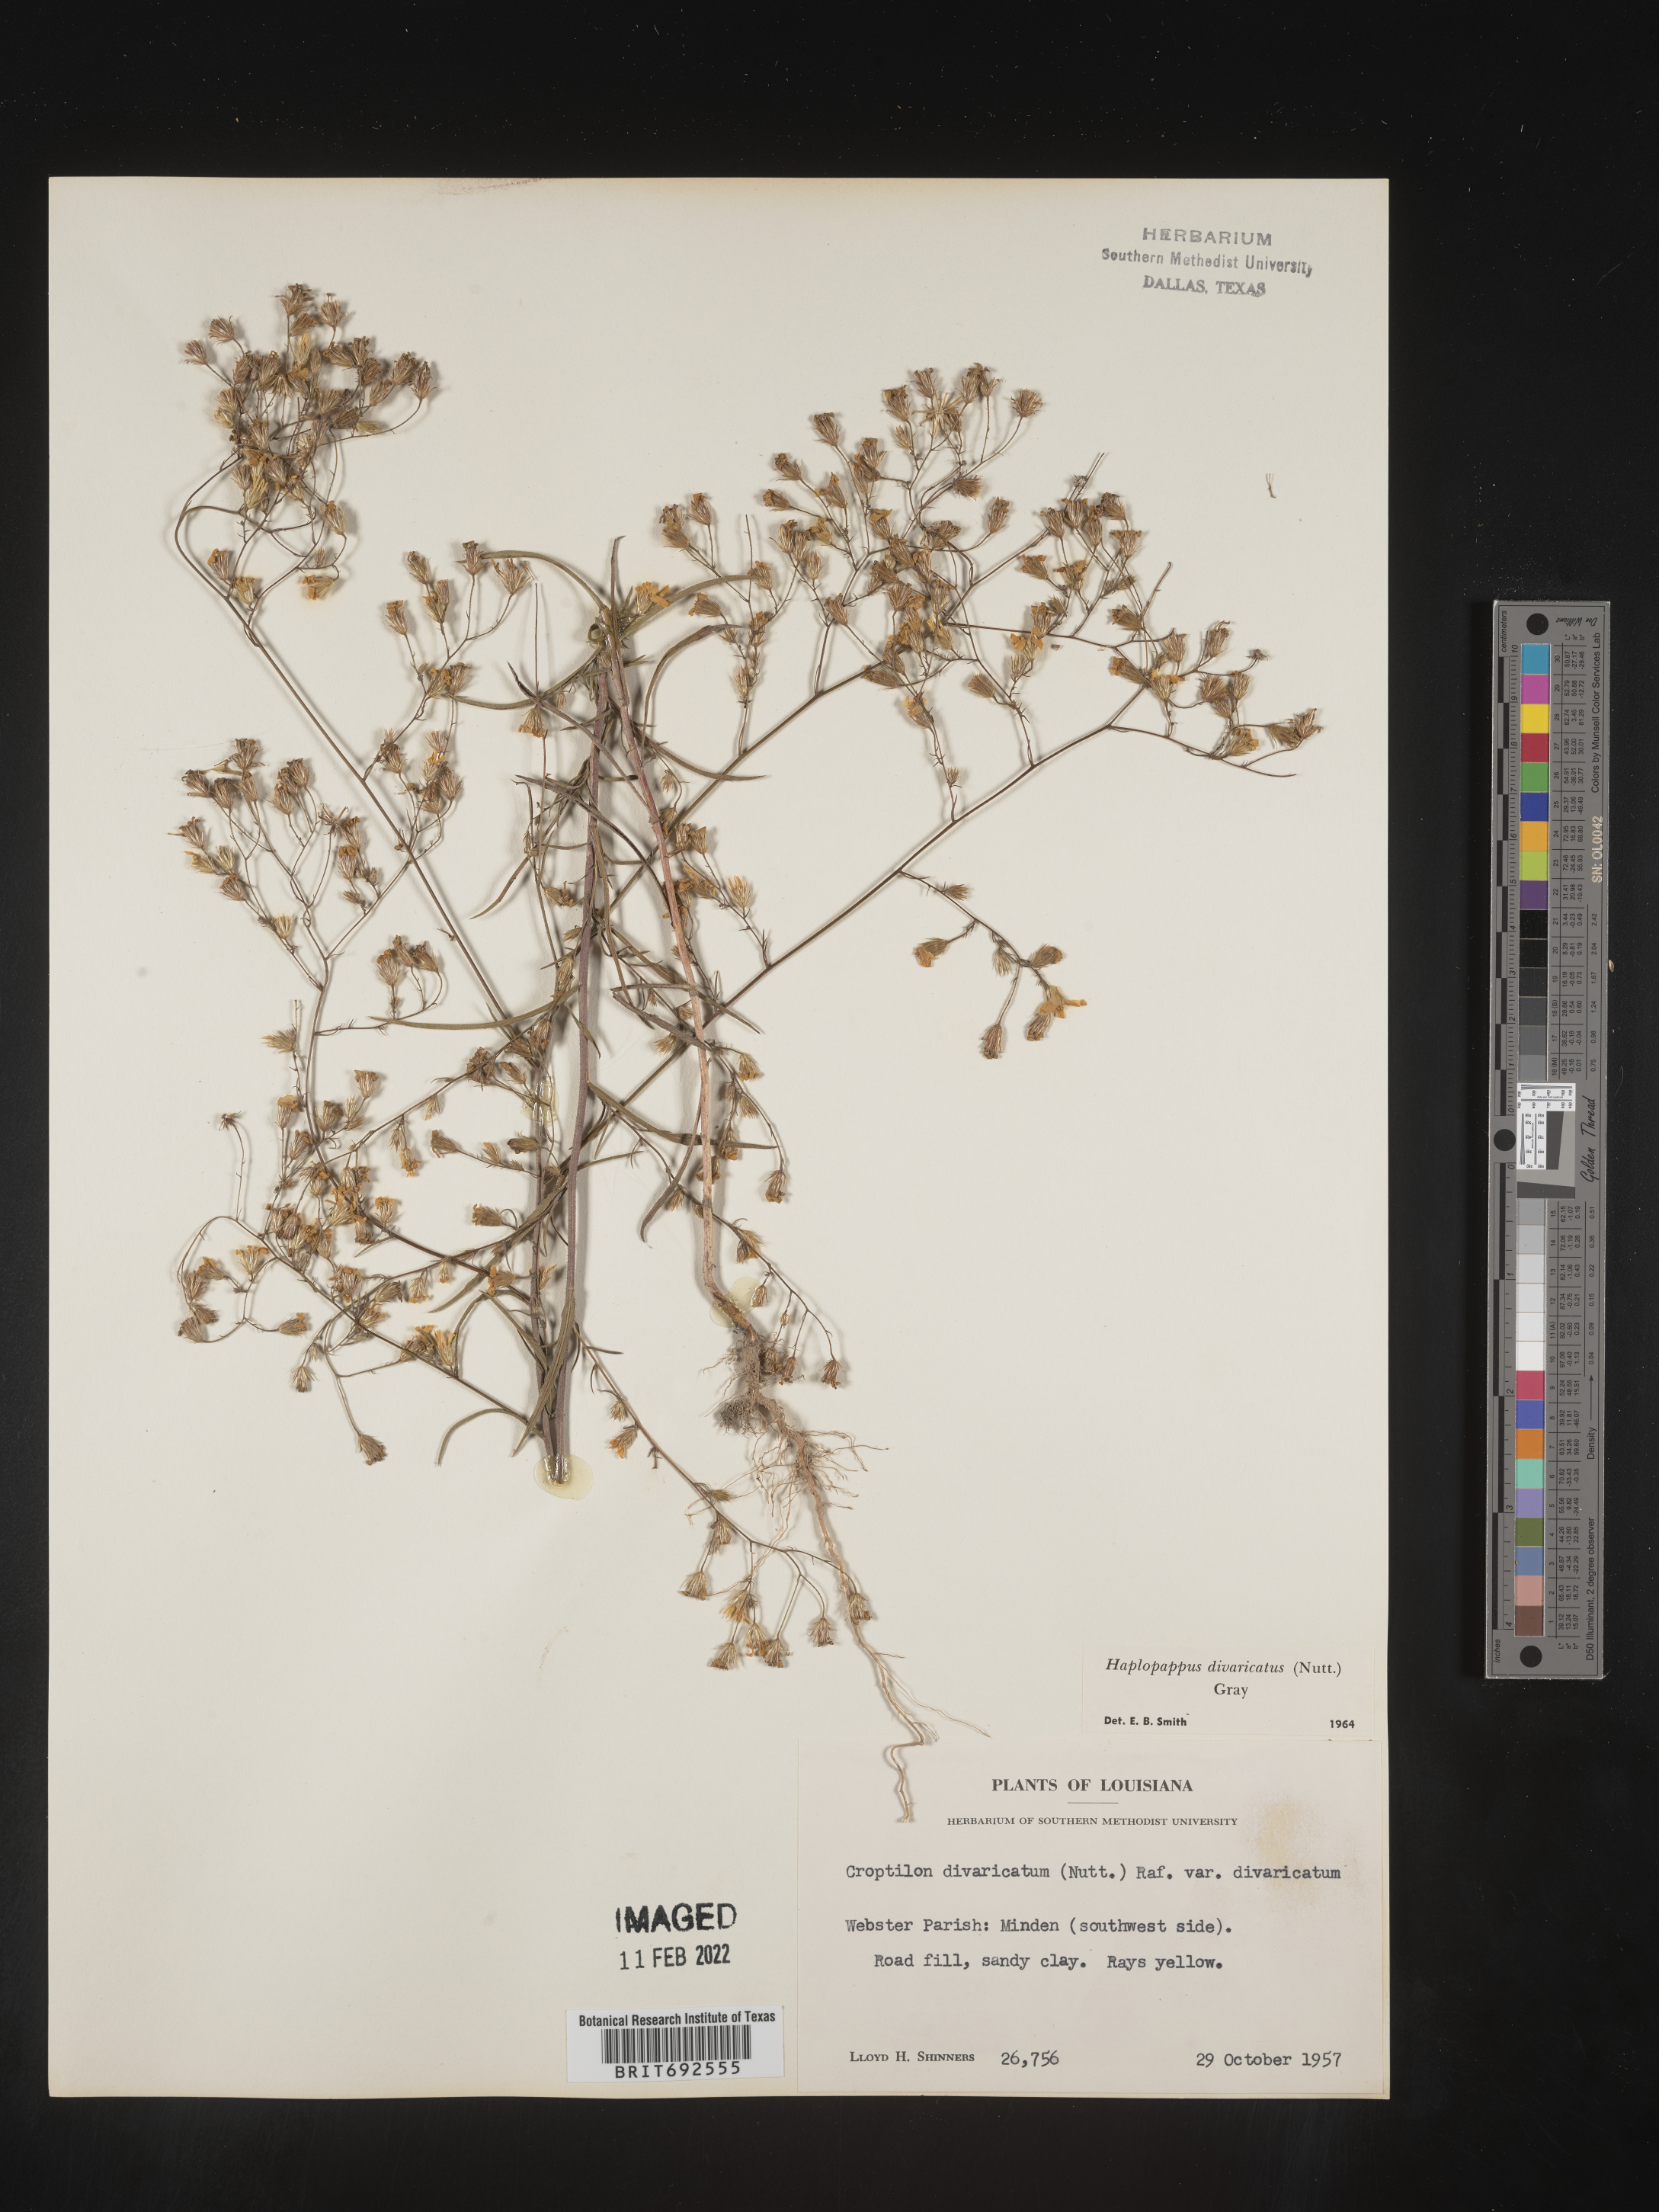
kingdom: Plantae
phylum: Tracheophyta
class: Magnoliopsida
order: Asterales
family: Asteraceae
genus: Croptilon
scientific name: Croptilon divaricatum
